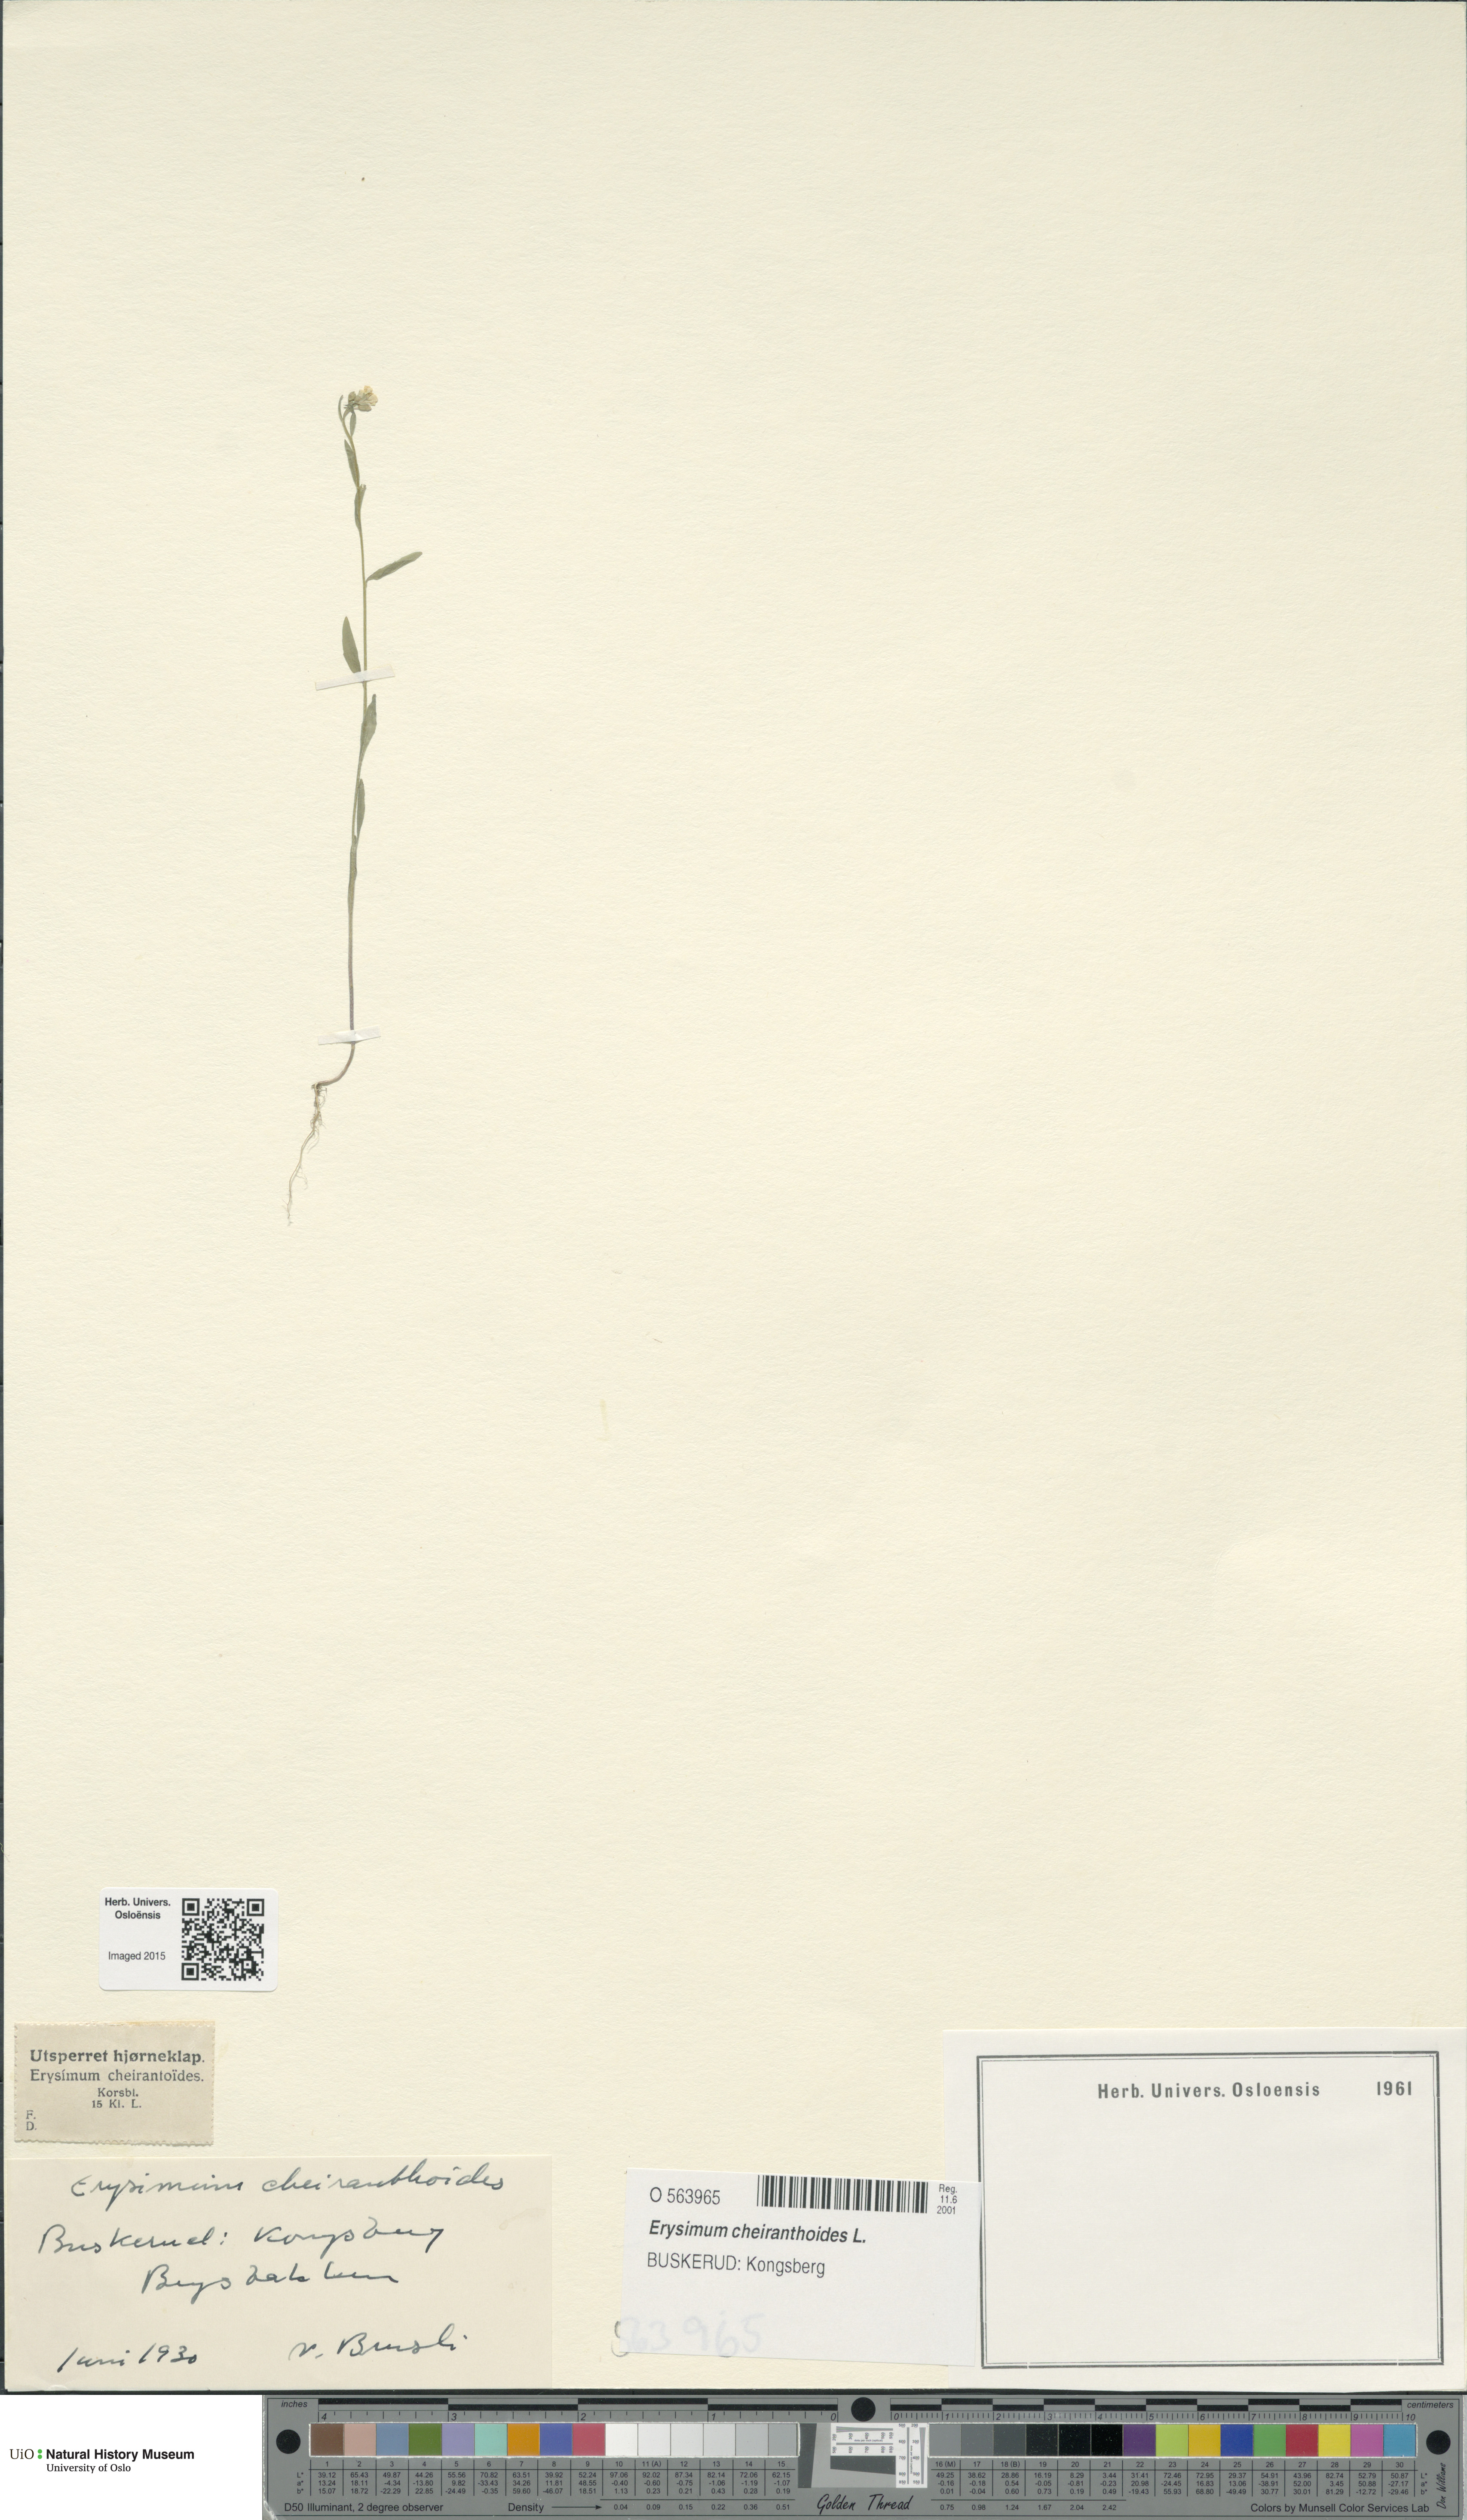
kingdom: Plantae
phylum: Tracheophyta
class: Magnoliopsida
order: Brassicales
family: Brassicaceae
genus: Erysimum
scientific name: Erysimum cheiranthoides
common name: Treacle mustard
